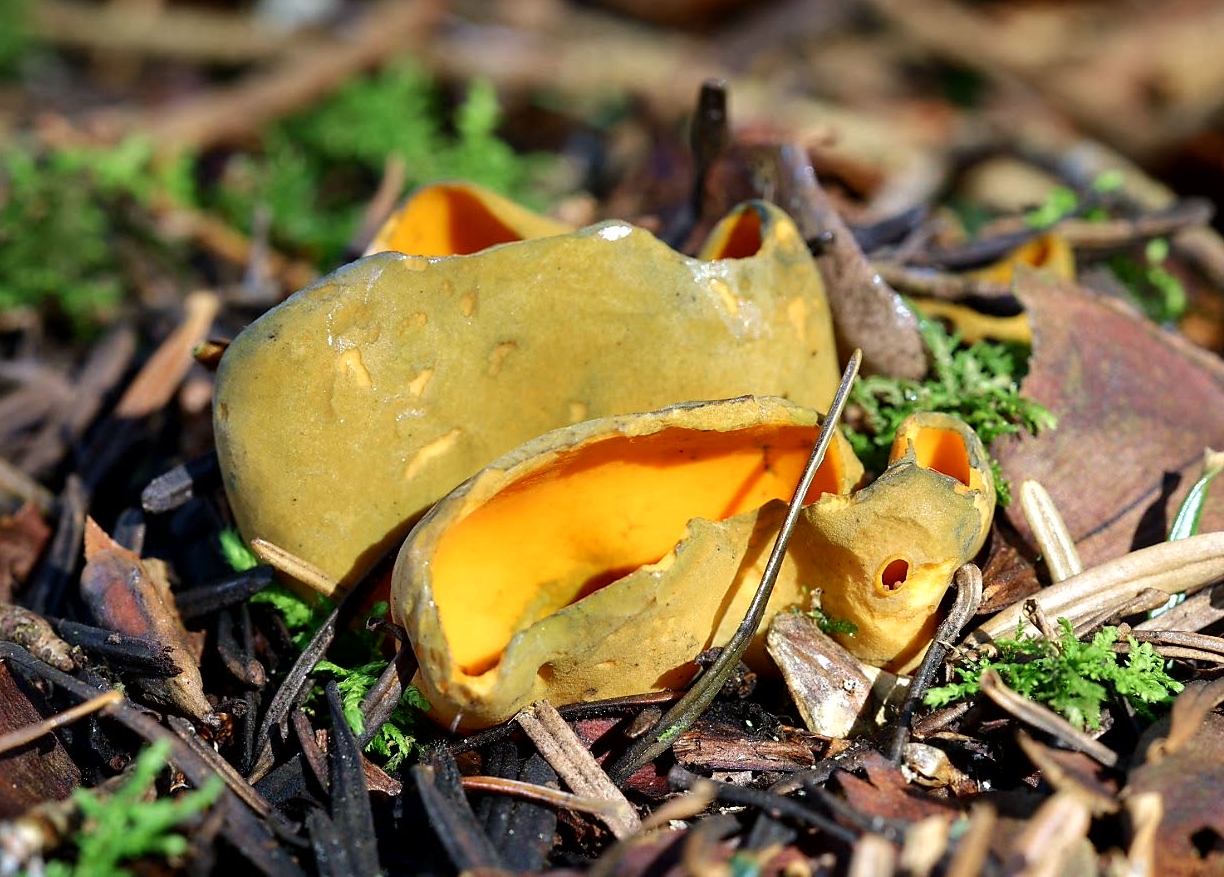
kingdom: Fungi
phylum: Ascomycota
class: Pezizomycetes
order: Pezizales
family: Caloscyphaceae
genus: Caloscypha
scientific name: Caloscypha fulgens
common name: jadebæger
